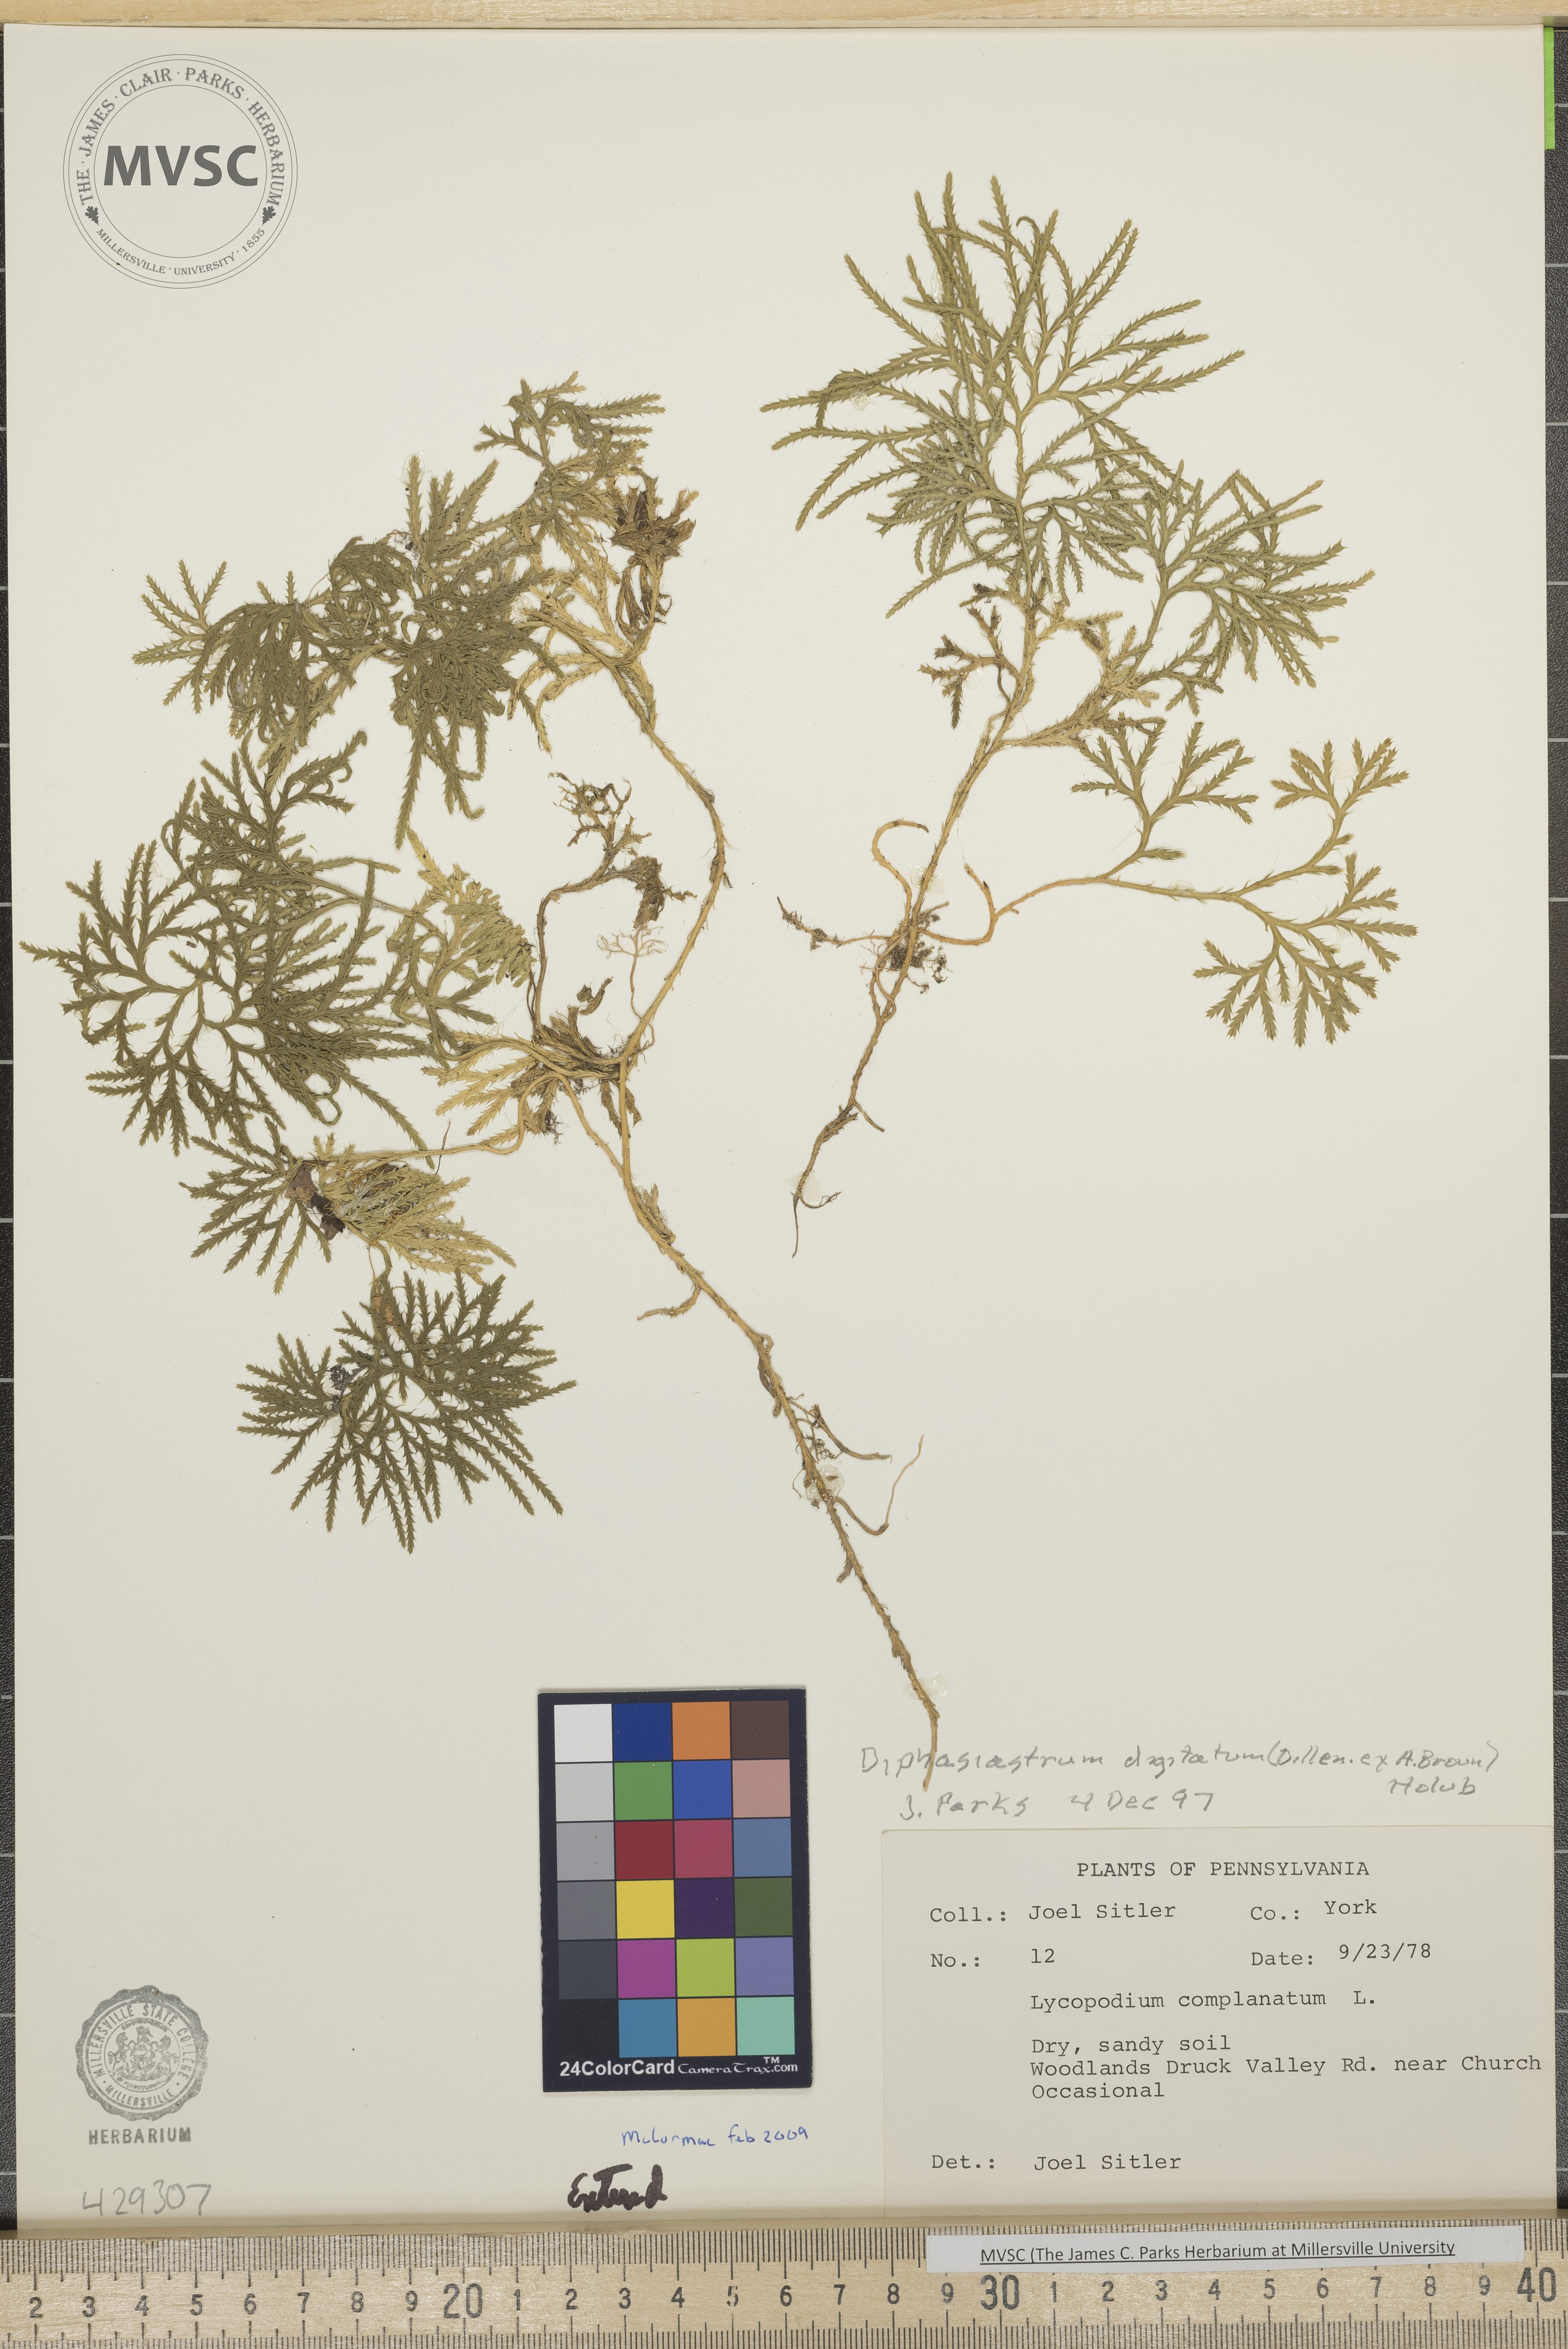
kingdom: Plantae
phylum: Tracheophyta
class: Lycopodiopsida
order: Lycopodiales
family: Lycopodiaceae
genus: Diphasiastrum
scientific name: Diphasiastrum digitatum
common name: Southern running-pine
